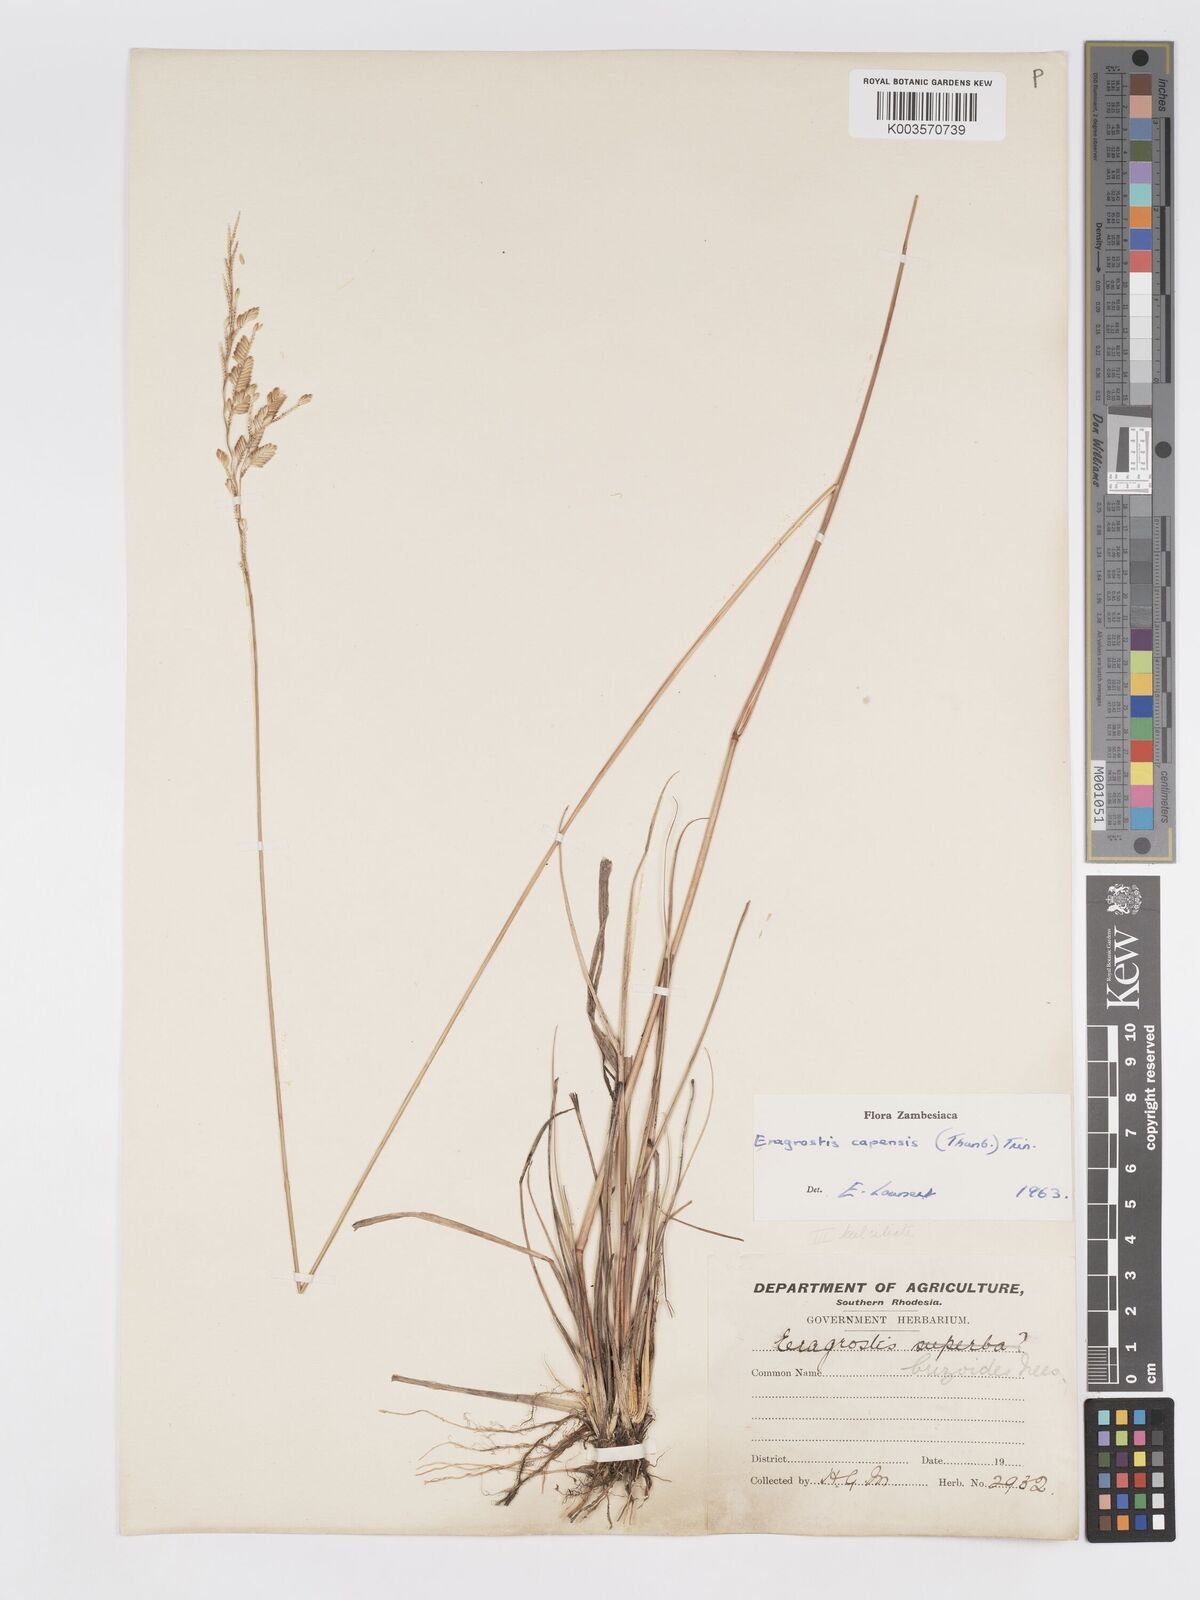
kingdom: Plantae
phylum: Tracheophyta
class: Liliopsida
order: Poales
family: Poaceae
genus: Eragrostis
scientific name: Eragrostis capensis
